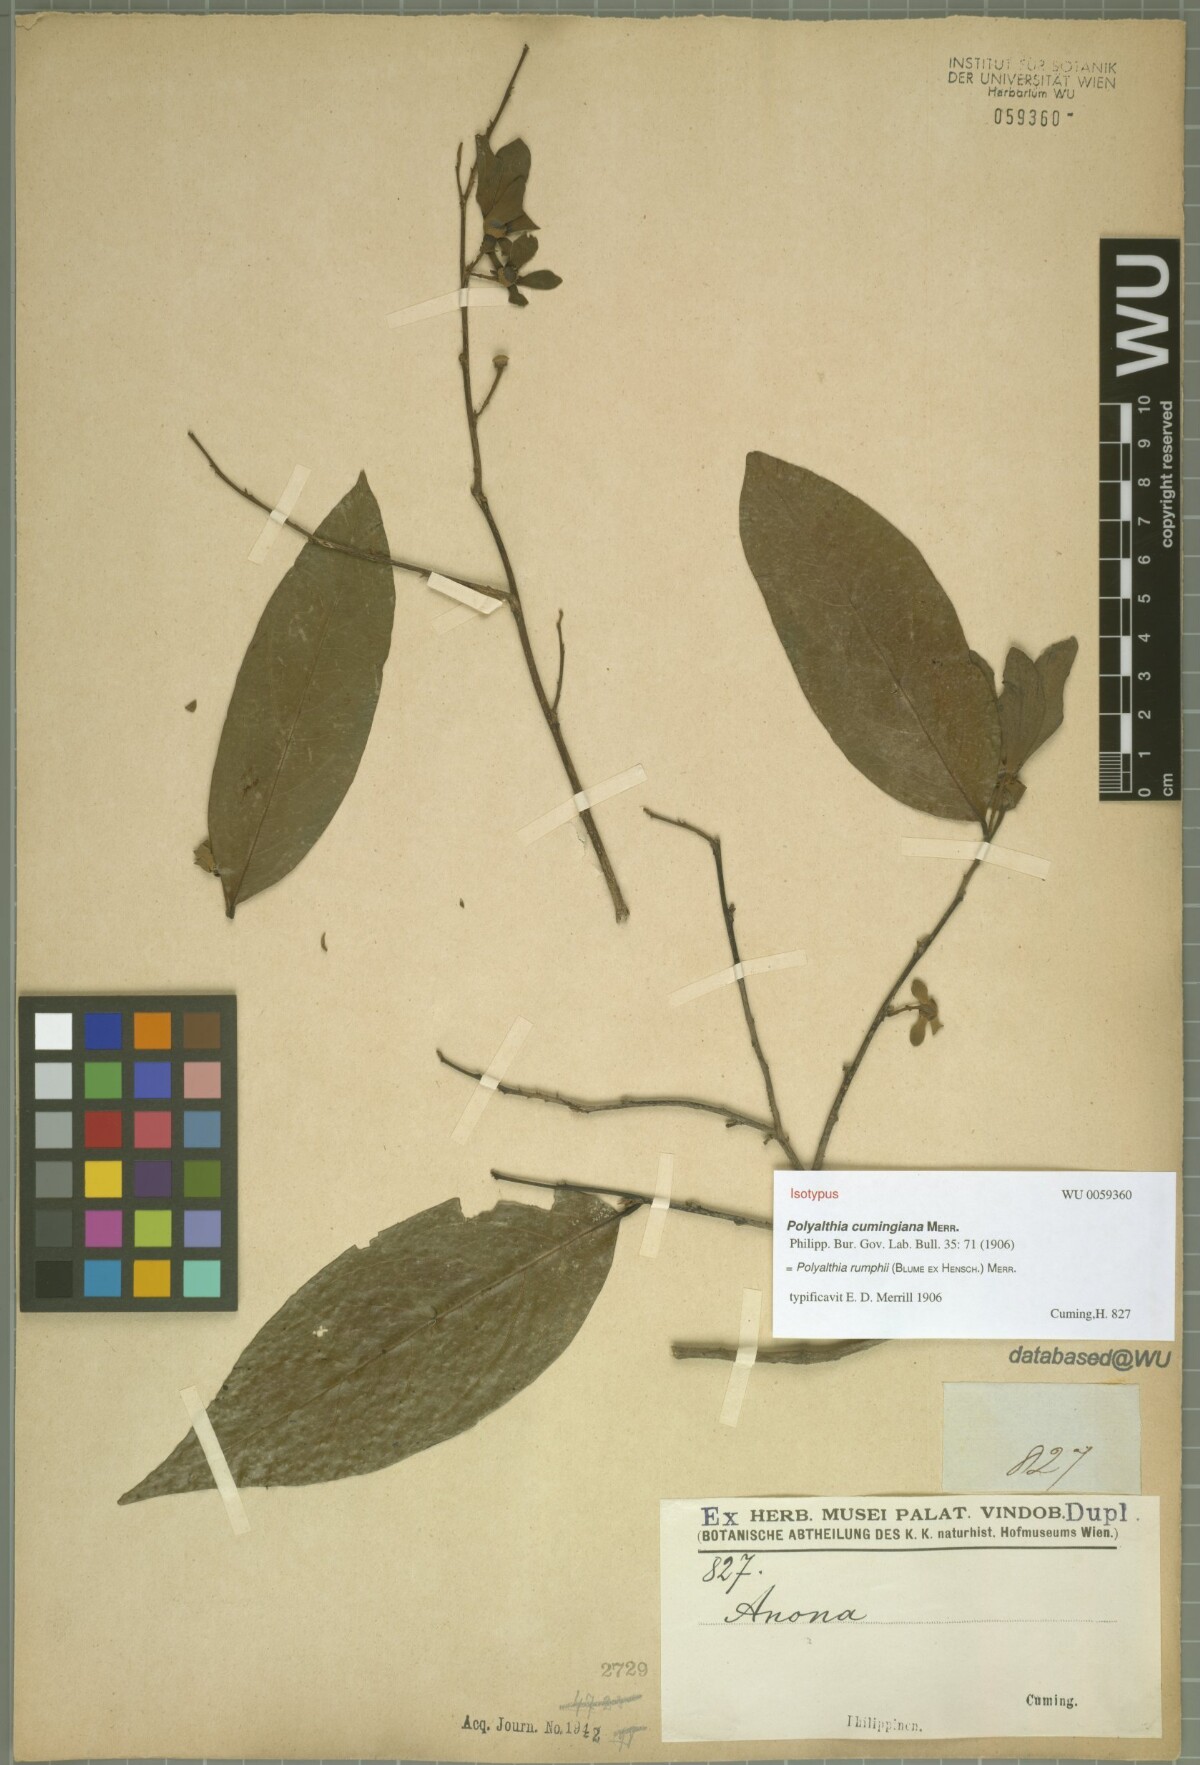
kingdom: Plantae
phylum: Tracheophyta
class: Magnoliopsida
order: Magnoliales
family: Annonaceae
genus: Hubera
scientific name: Hubera jenkinsii
